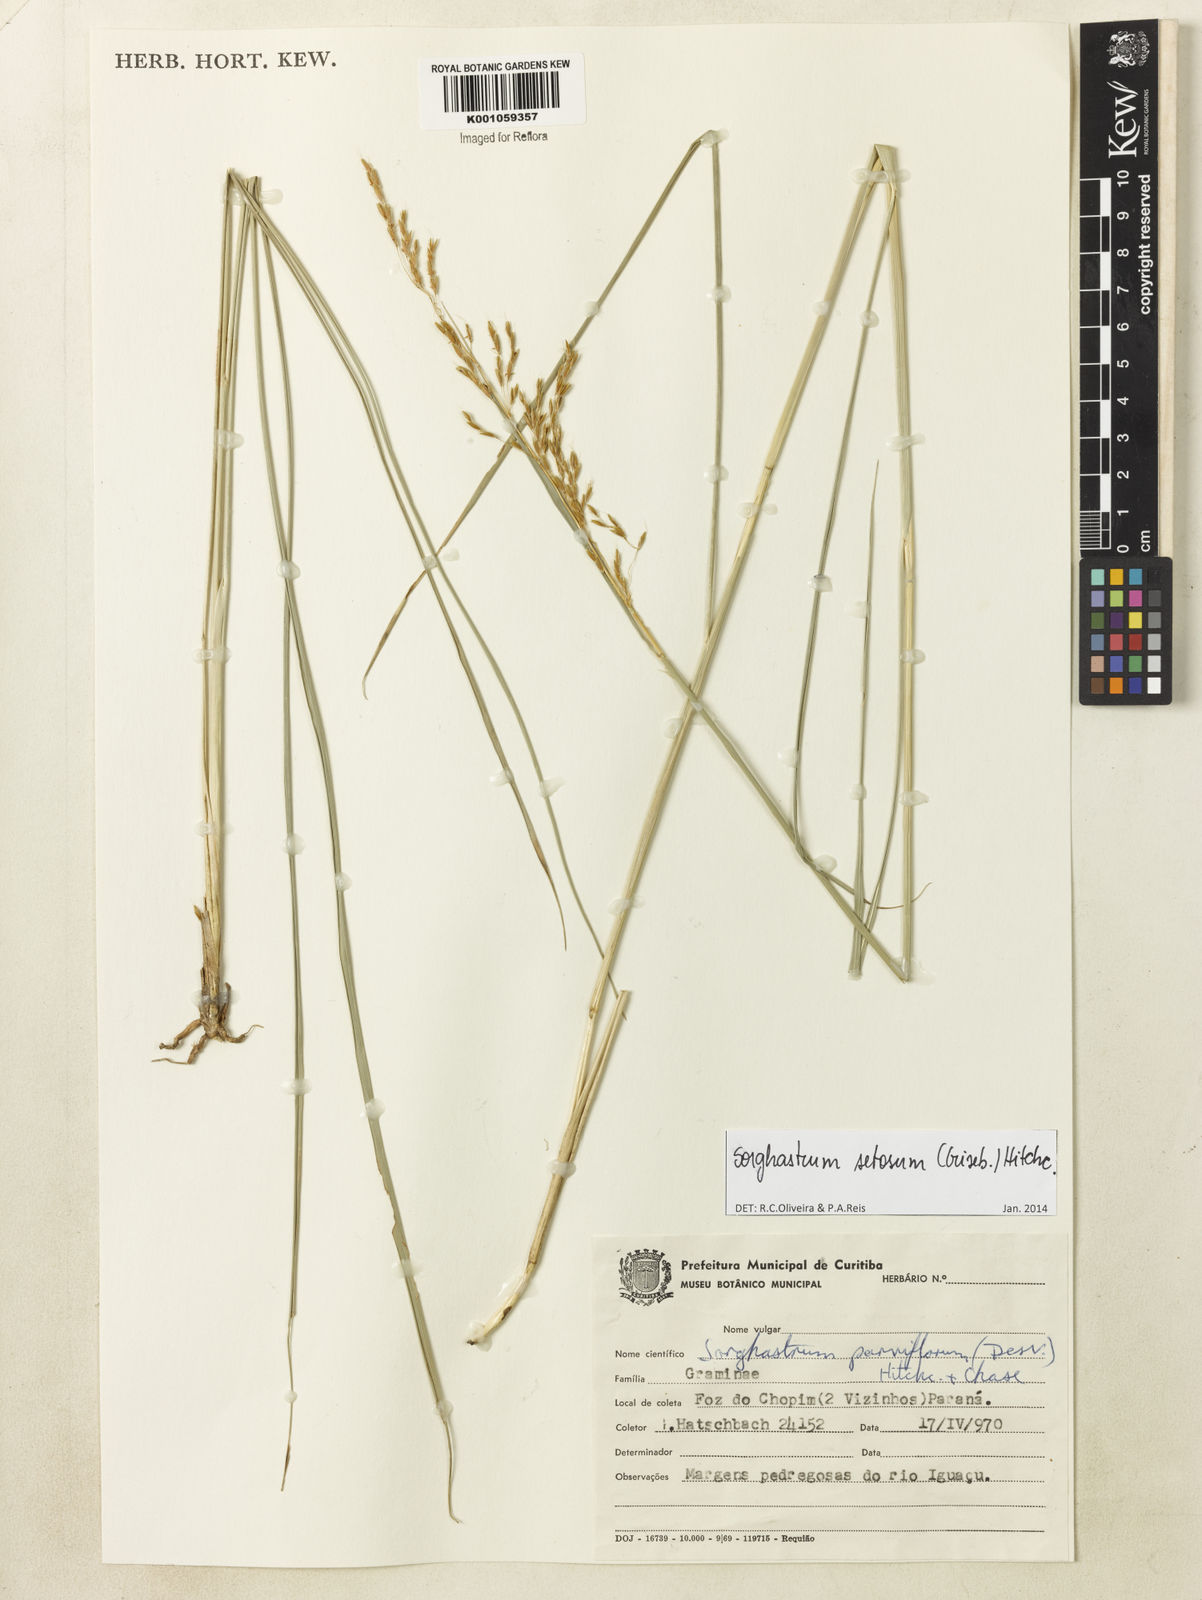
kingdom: Plantae
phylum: Tracheophyta
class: Liliopsida
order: Poales
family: Poaceae
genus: Sorghastrum
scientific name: Sorghastrum setosum
